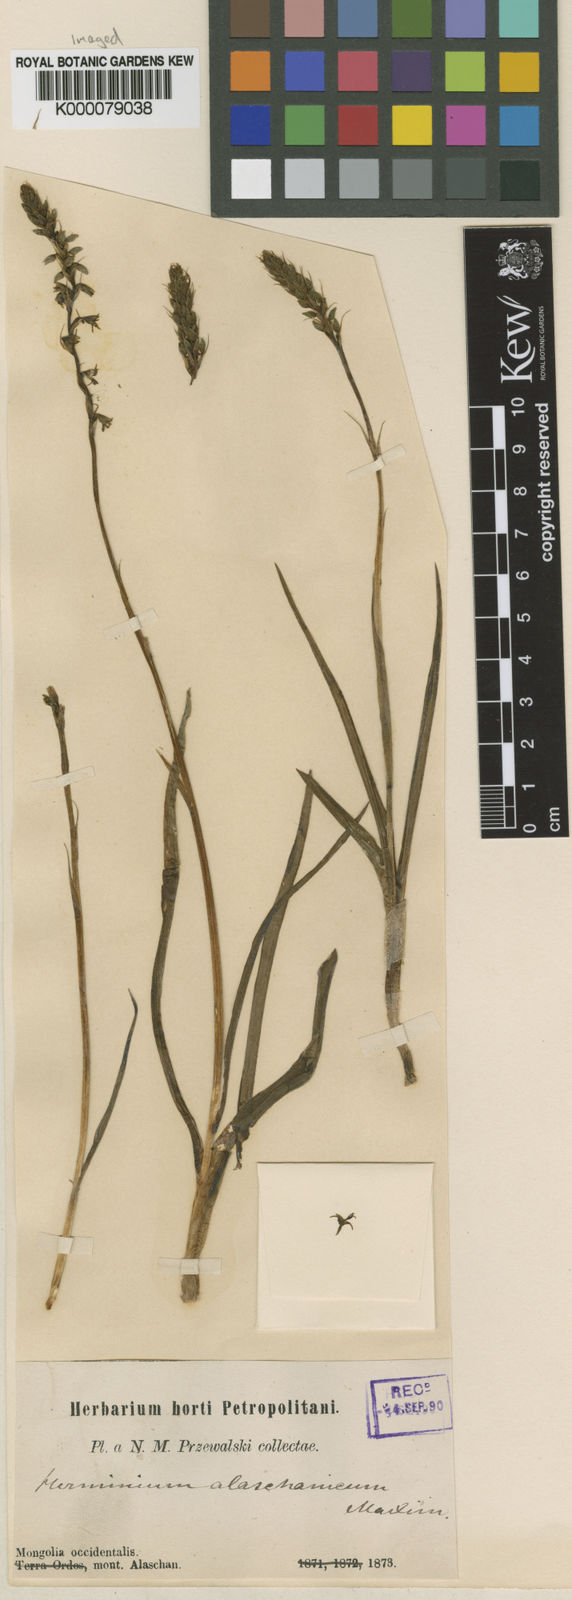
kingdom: Plantae
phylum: Tracheophyta
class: Liliopsida
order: Asparagales
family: Orchidaceae
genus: Herminium
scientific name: Herminium alaschanicum
